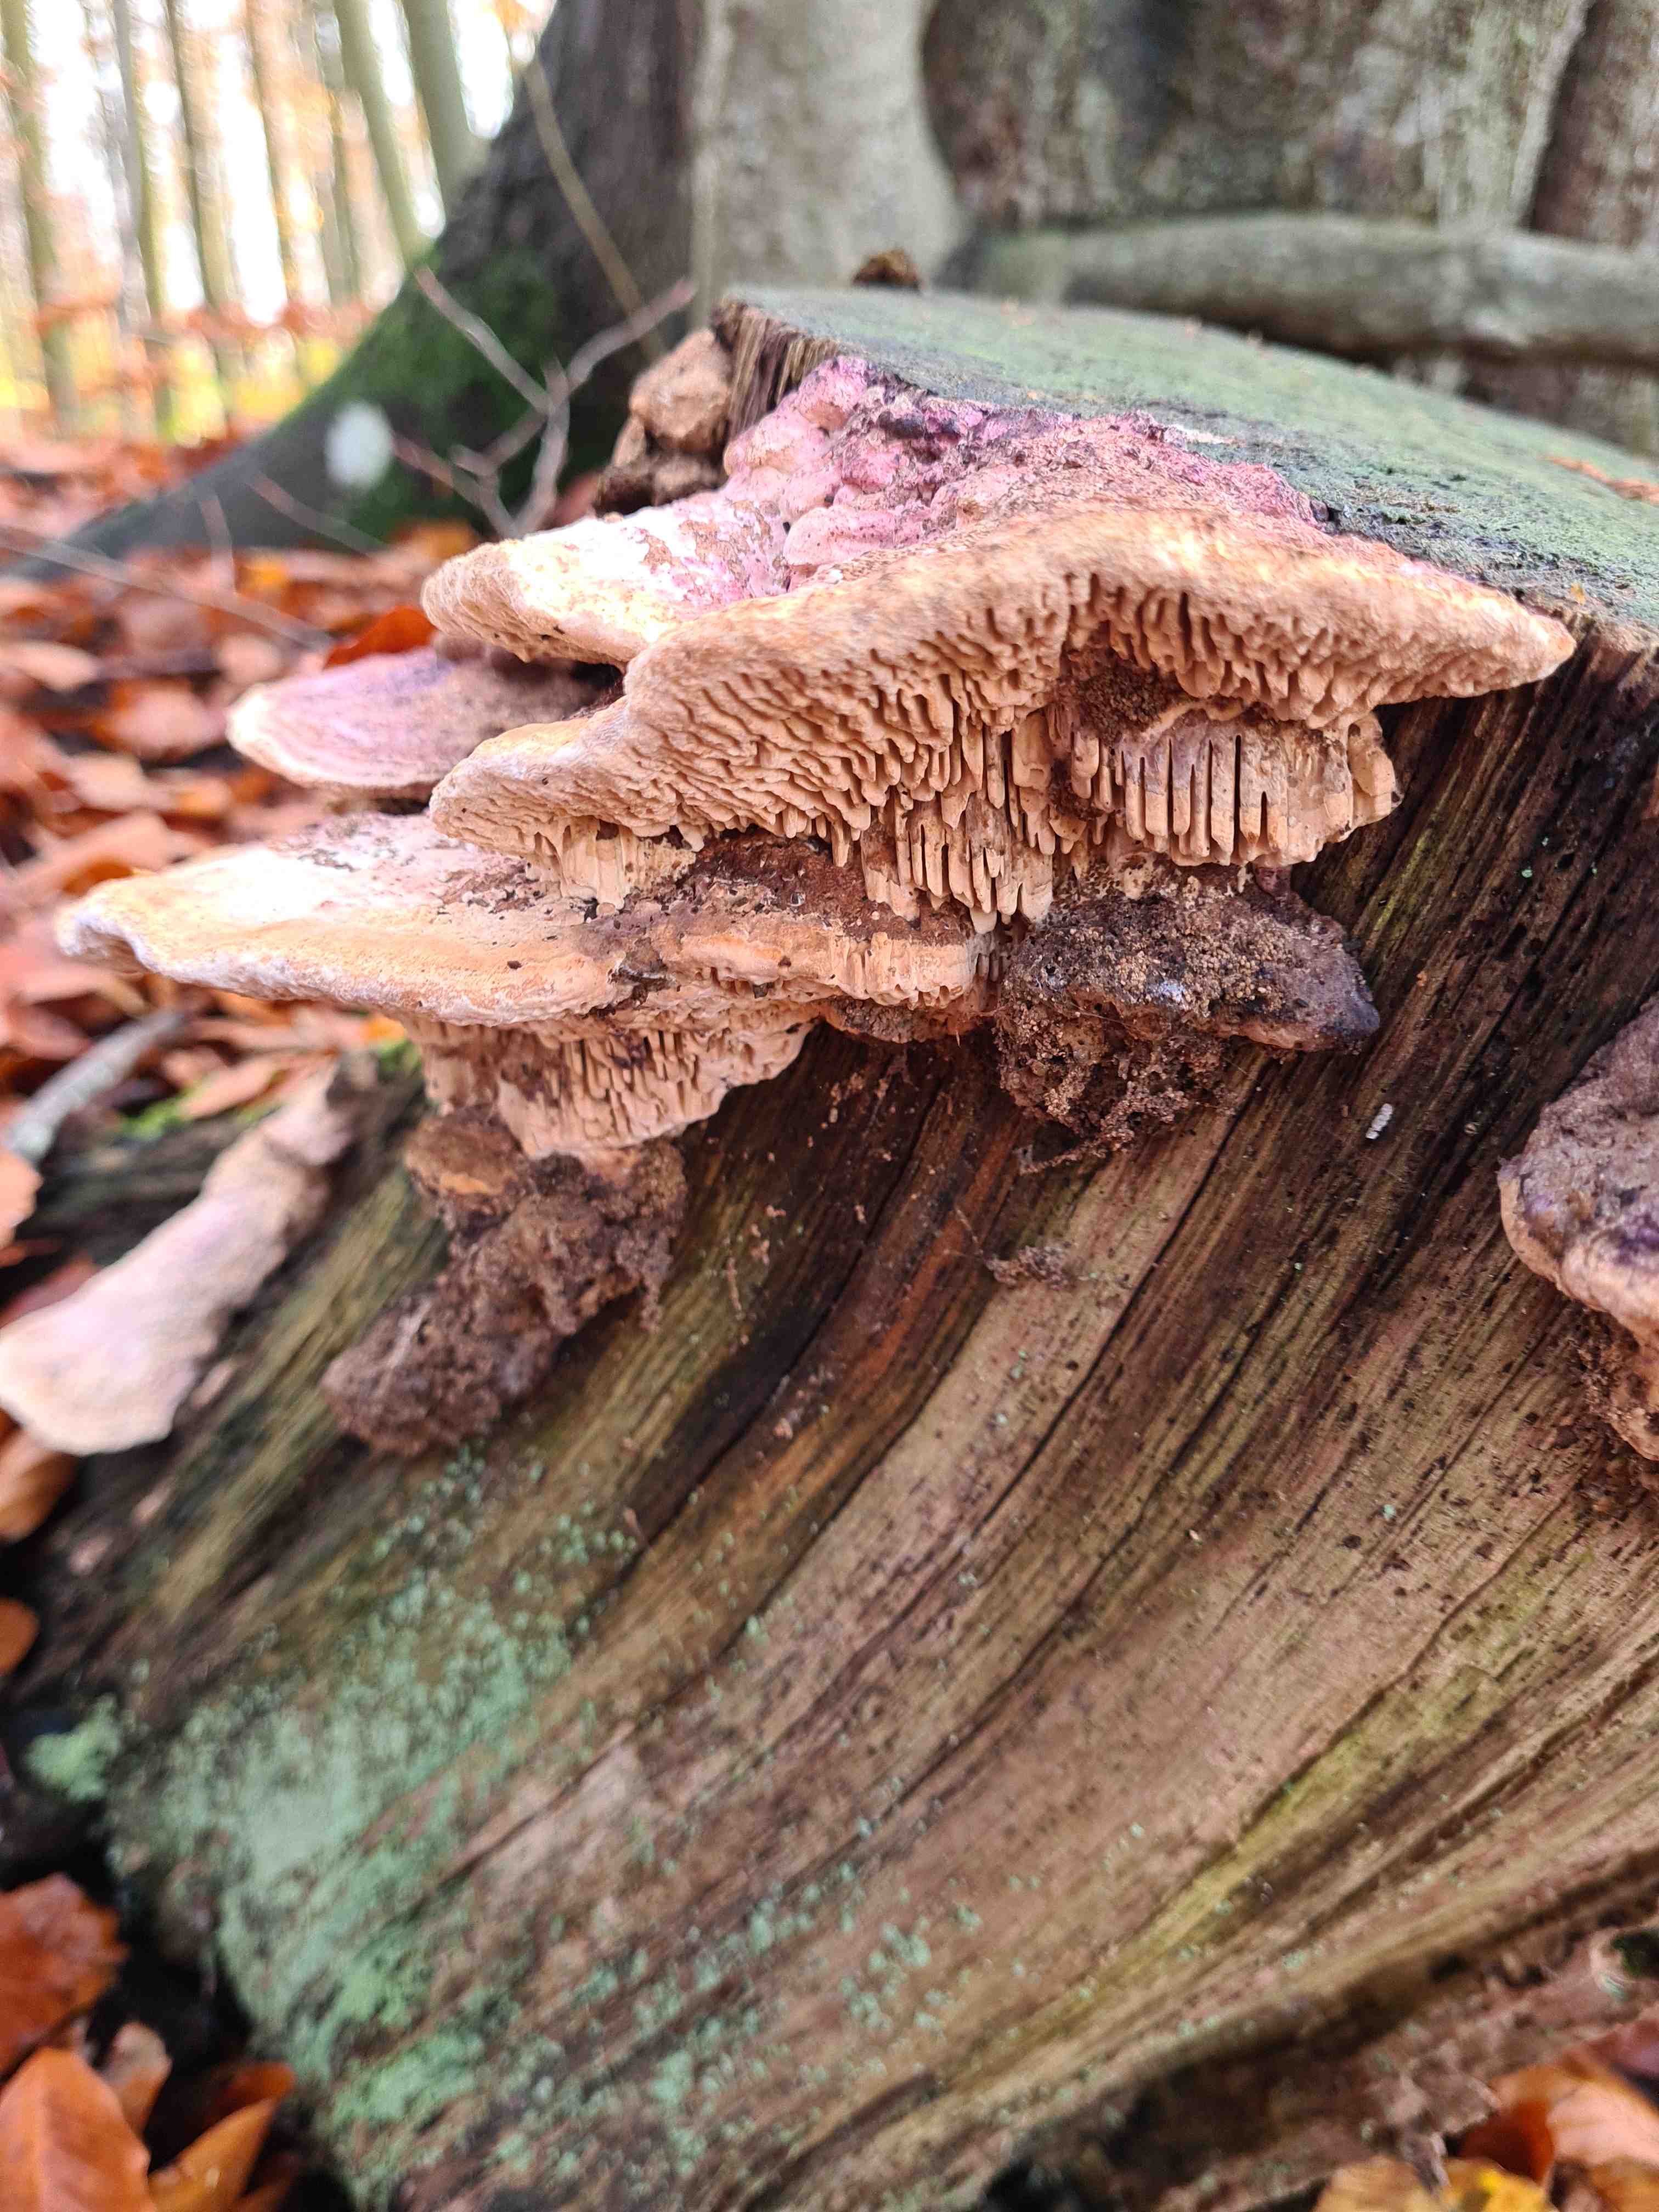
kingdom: Fungi
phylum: Basidiomycota
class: Agaricomycetes
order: Polyporales
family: Fomitopsidaceae
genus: Daedalea
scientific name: Daedalea quercina
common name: ege-labyrintsvamp
